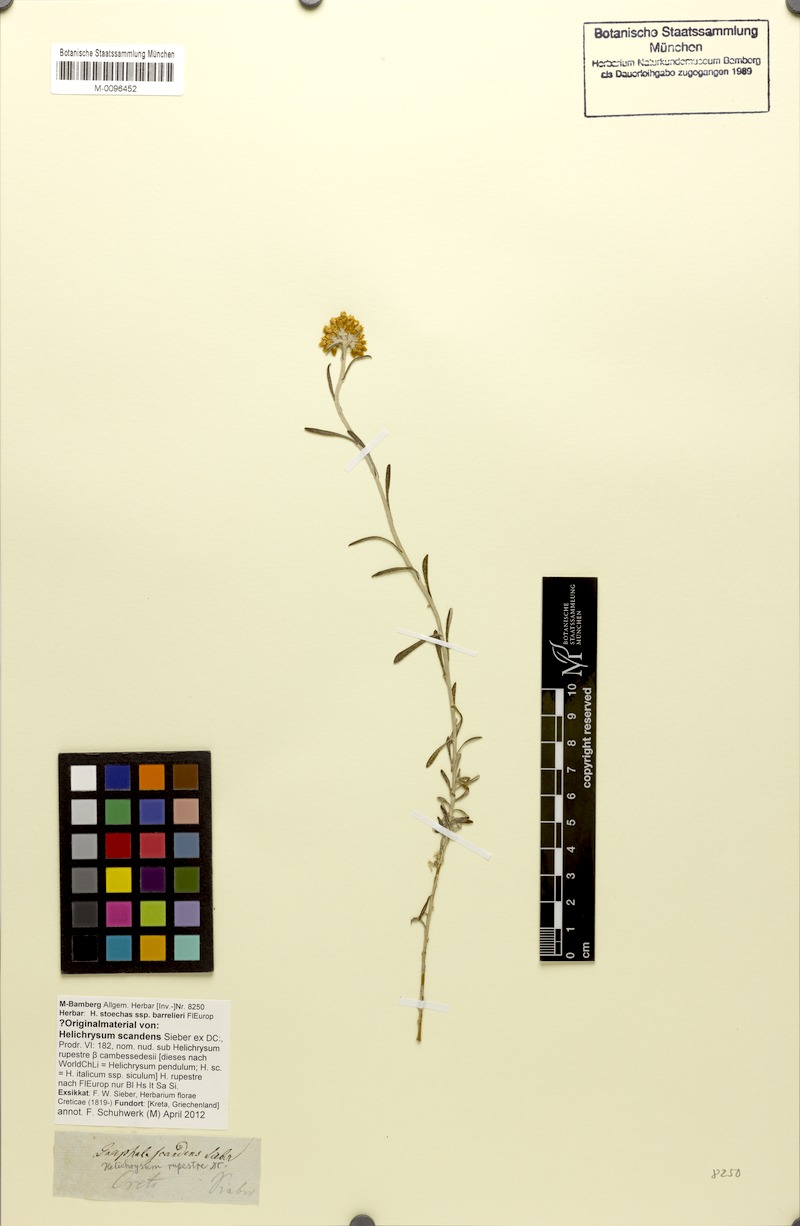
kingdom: Plantae
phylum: Tracheophyta
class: Magnoliopsida
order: Asterales
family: Asteraceae
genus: Helichrysum
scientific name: Helichrysum stoechas
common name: Goldilocks
